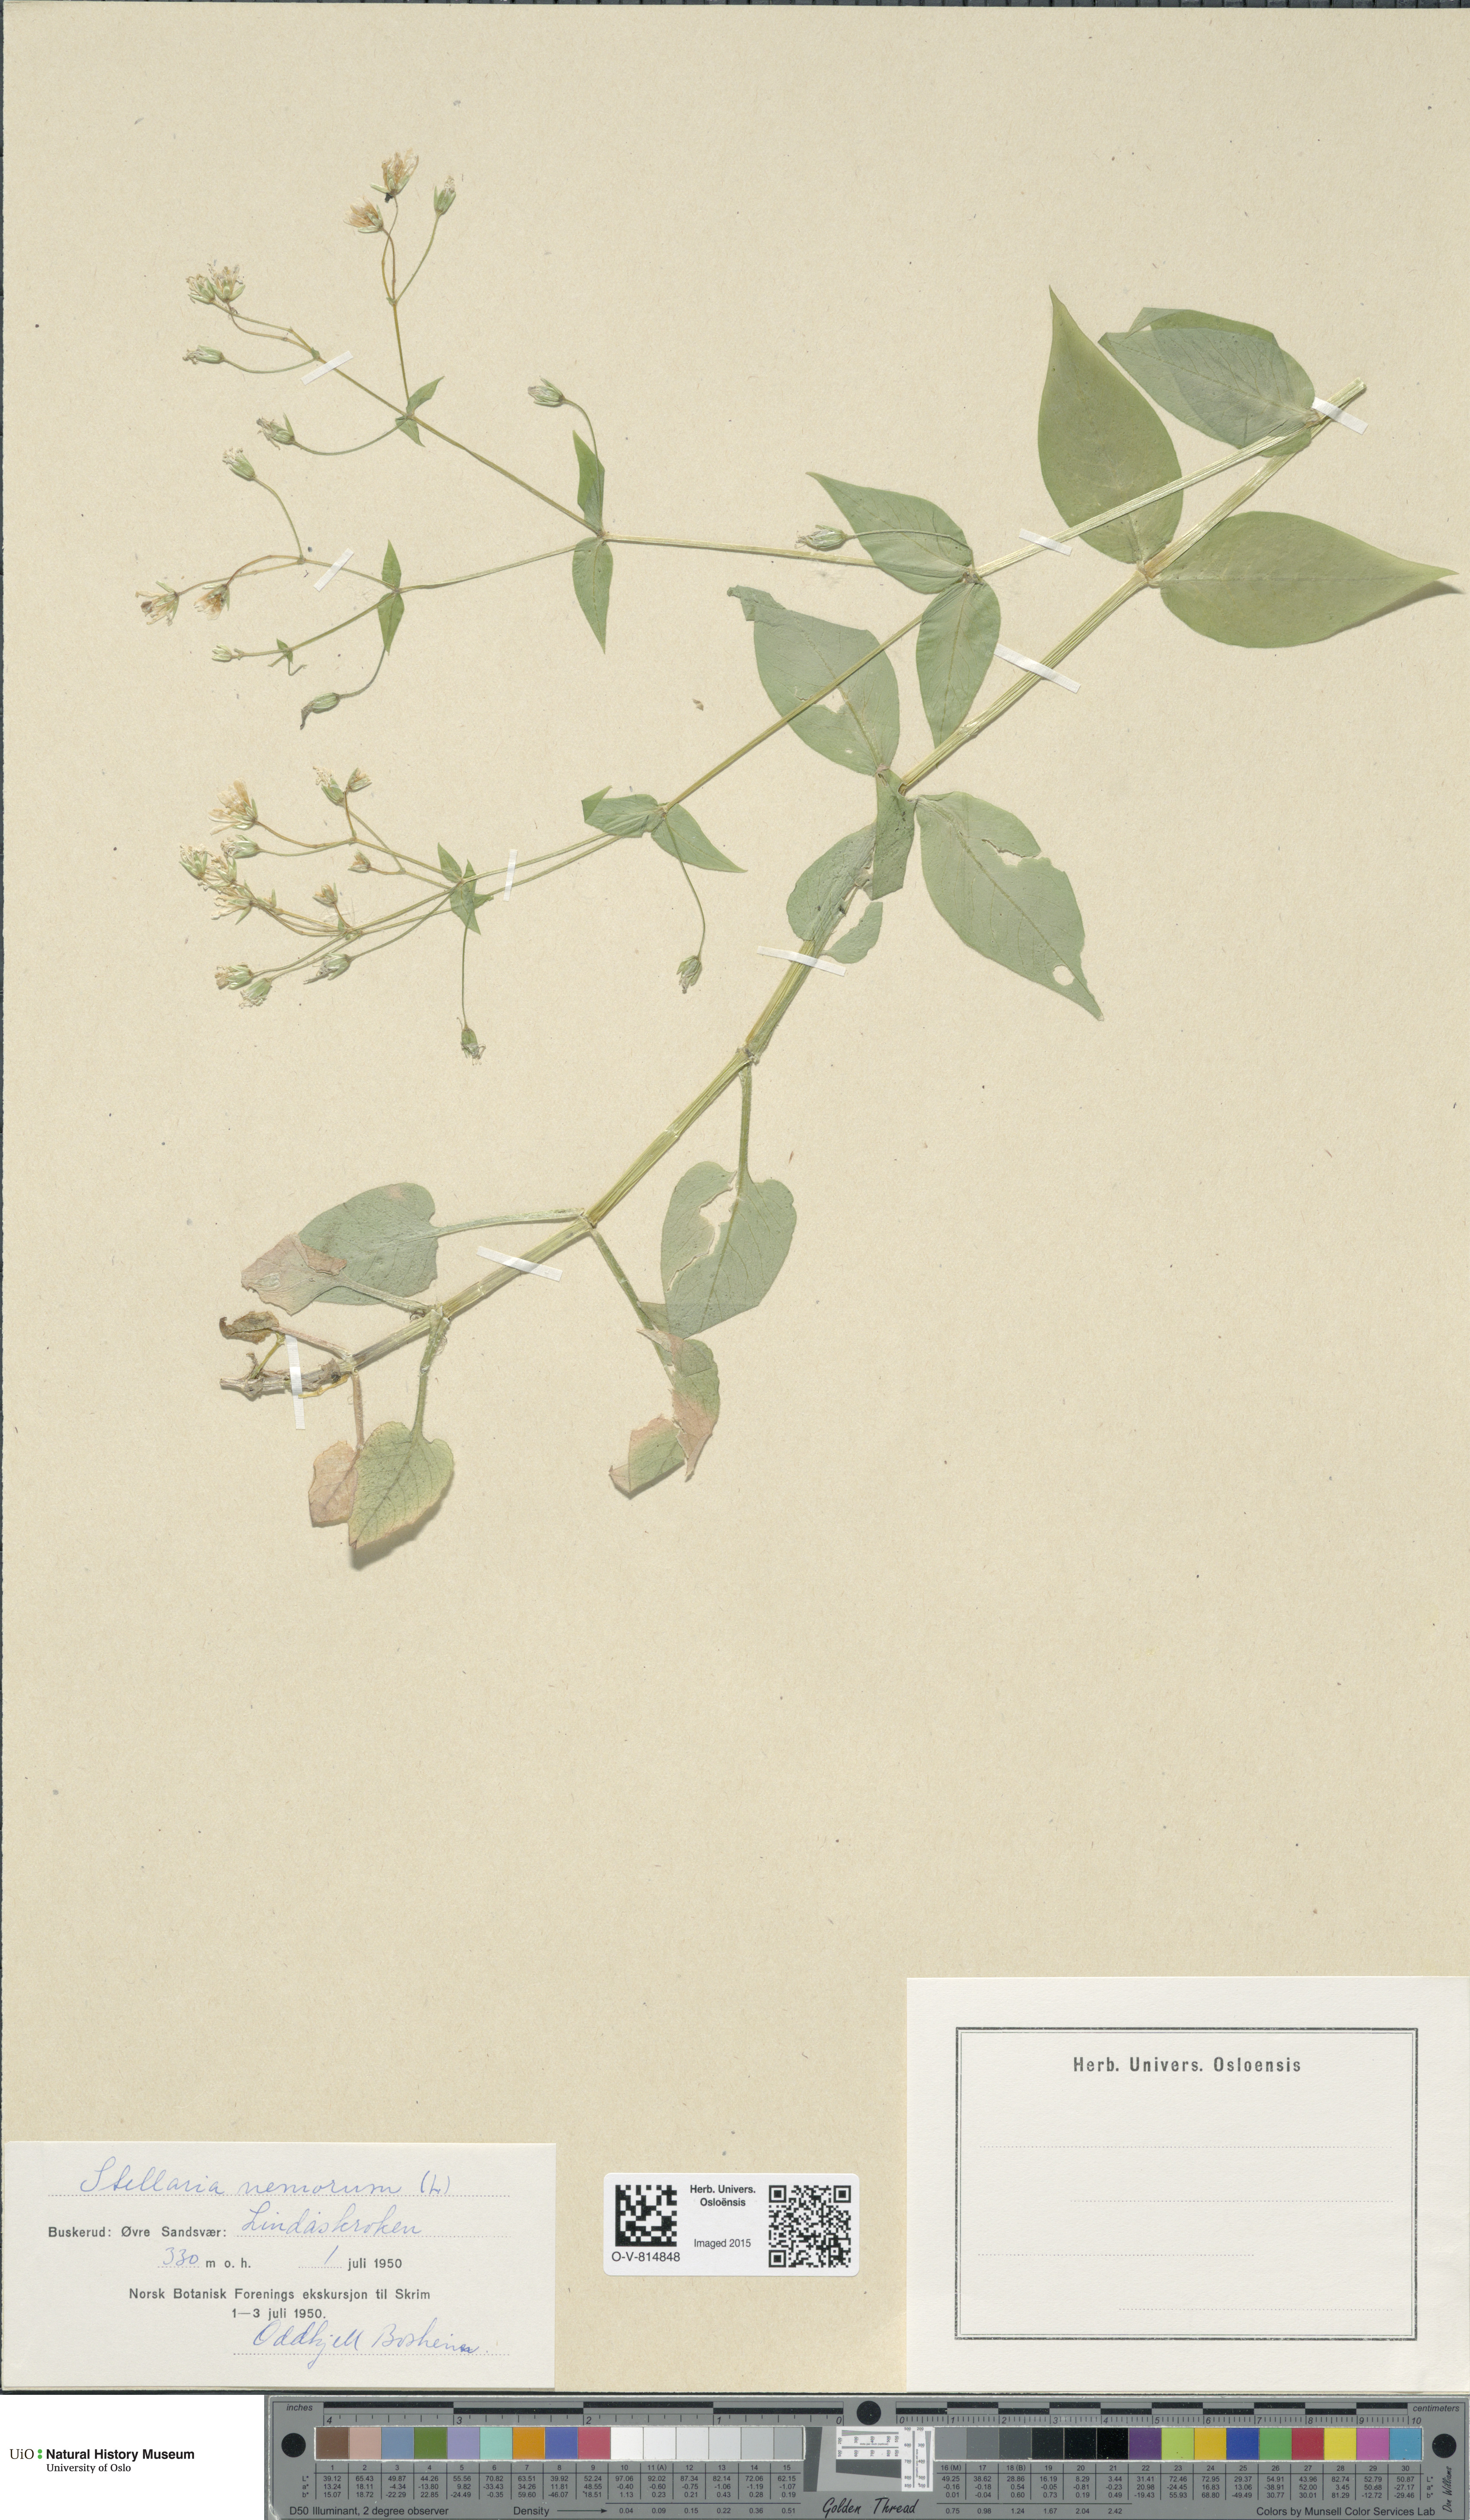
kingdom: Plantae
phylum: Tracheophyta
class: Magnoliopsida
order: Caryophyllales
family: Caryophyllaceae
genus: Stellaria
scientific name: Stellaria nemorum
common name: Wood stitchwort
